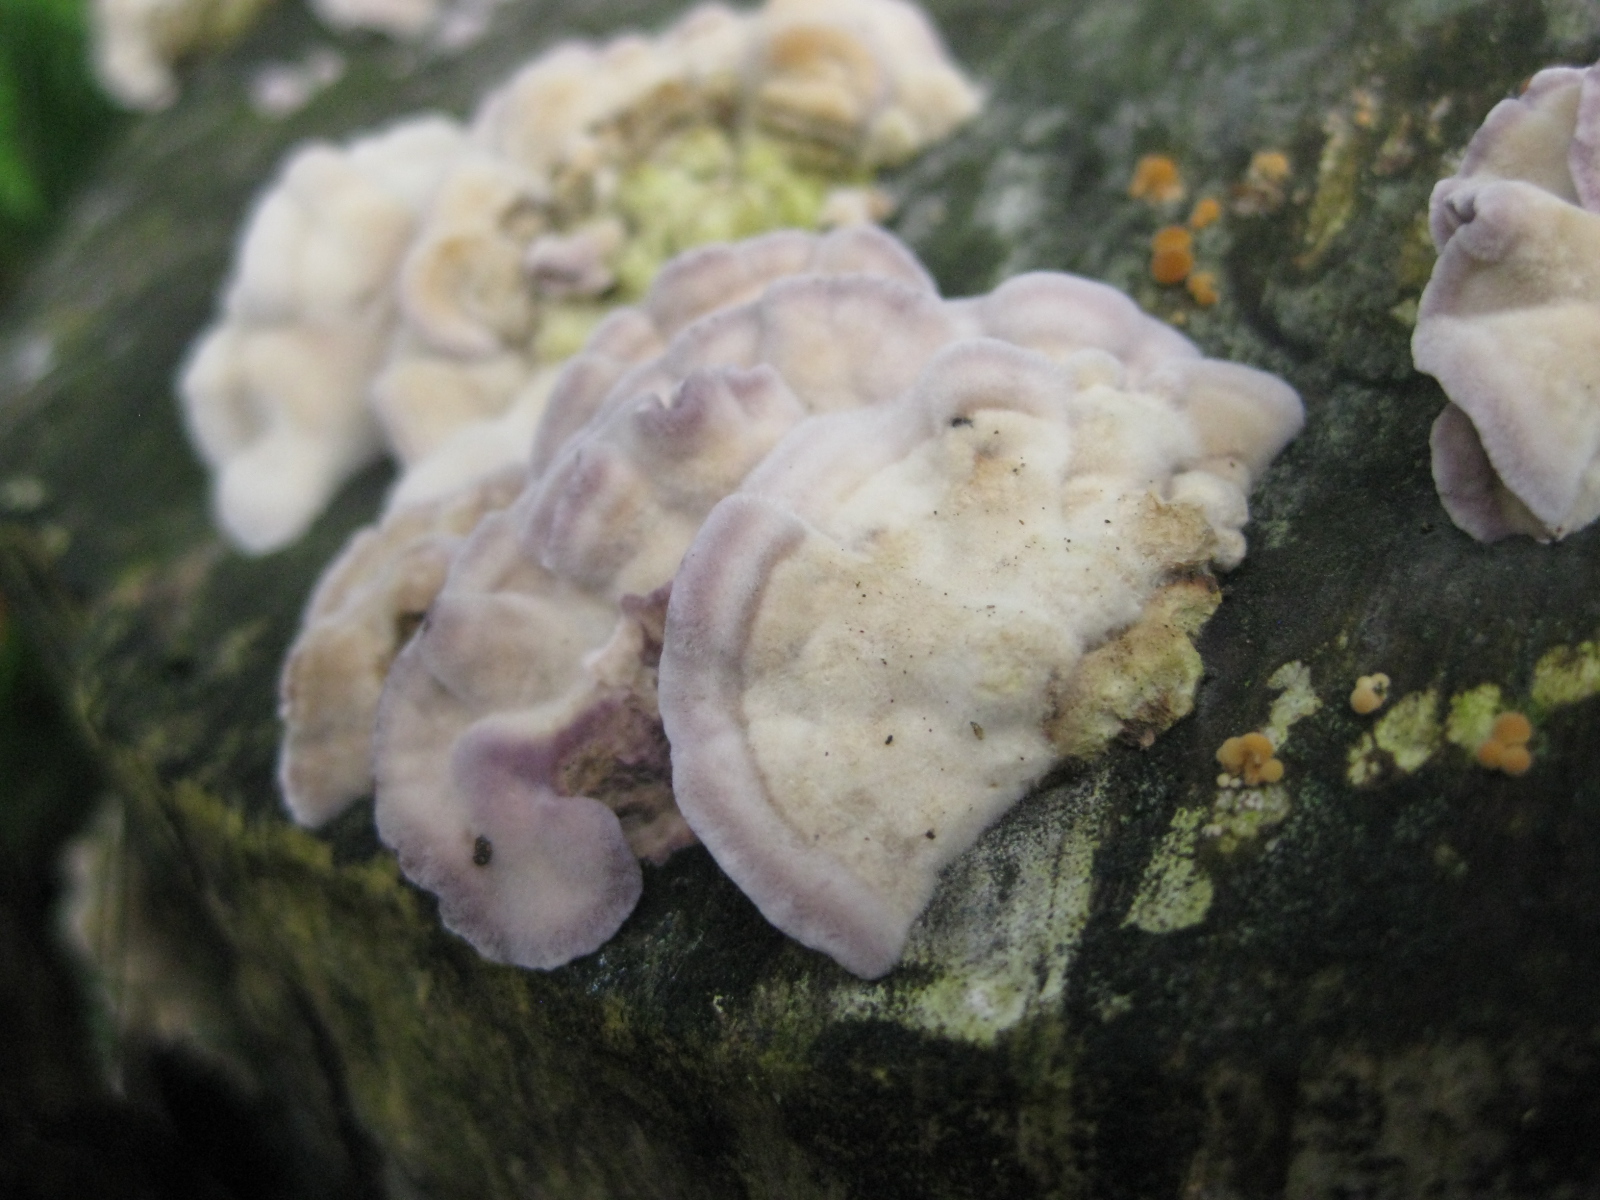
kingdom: Fungi
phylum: Basidiomycota
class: Agaricomycetes
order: Agaricales
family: Cyphellaceae
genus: Chondrostereum
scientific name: Chondrostereum purpureum
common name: purpurlædersvamp
